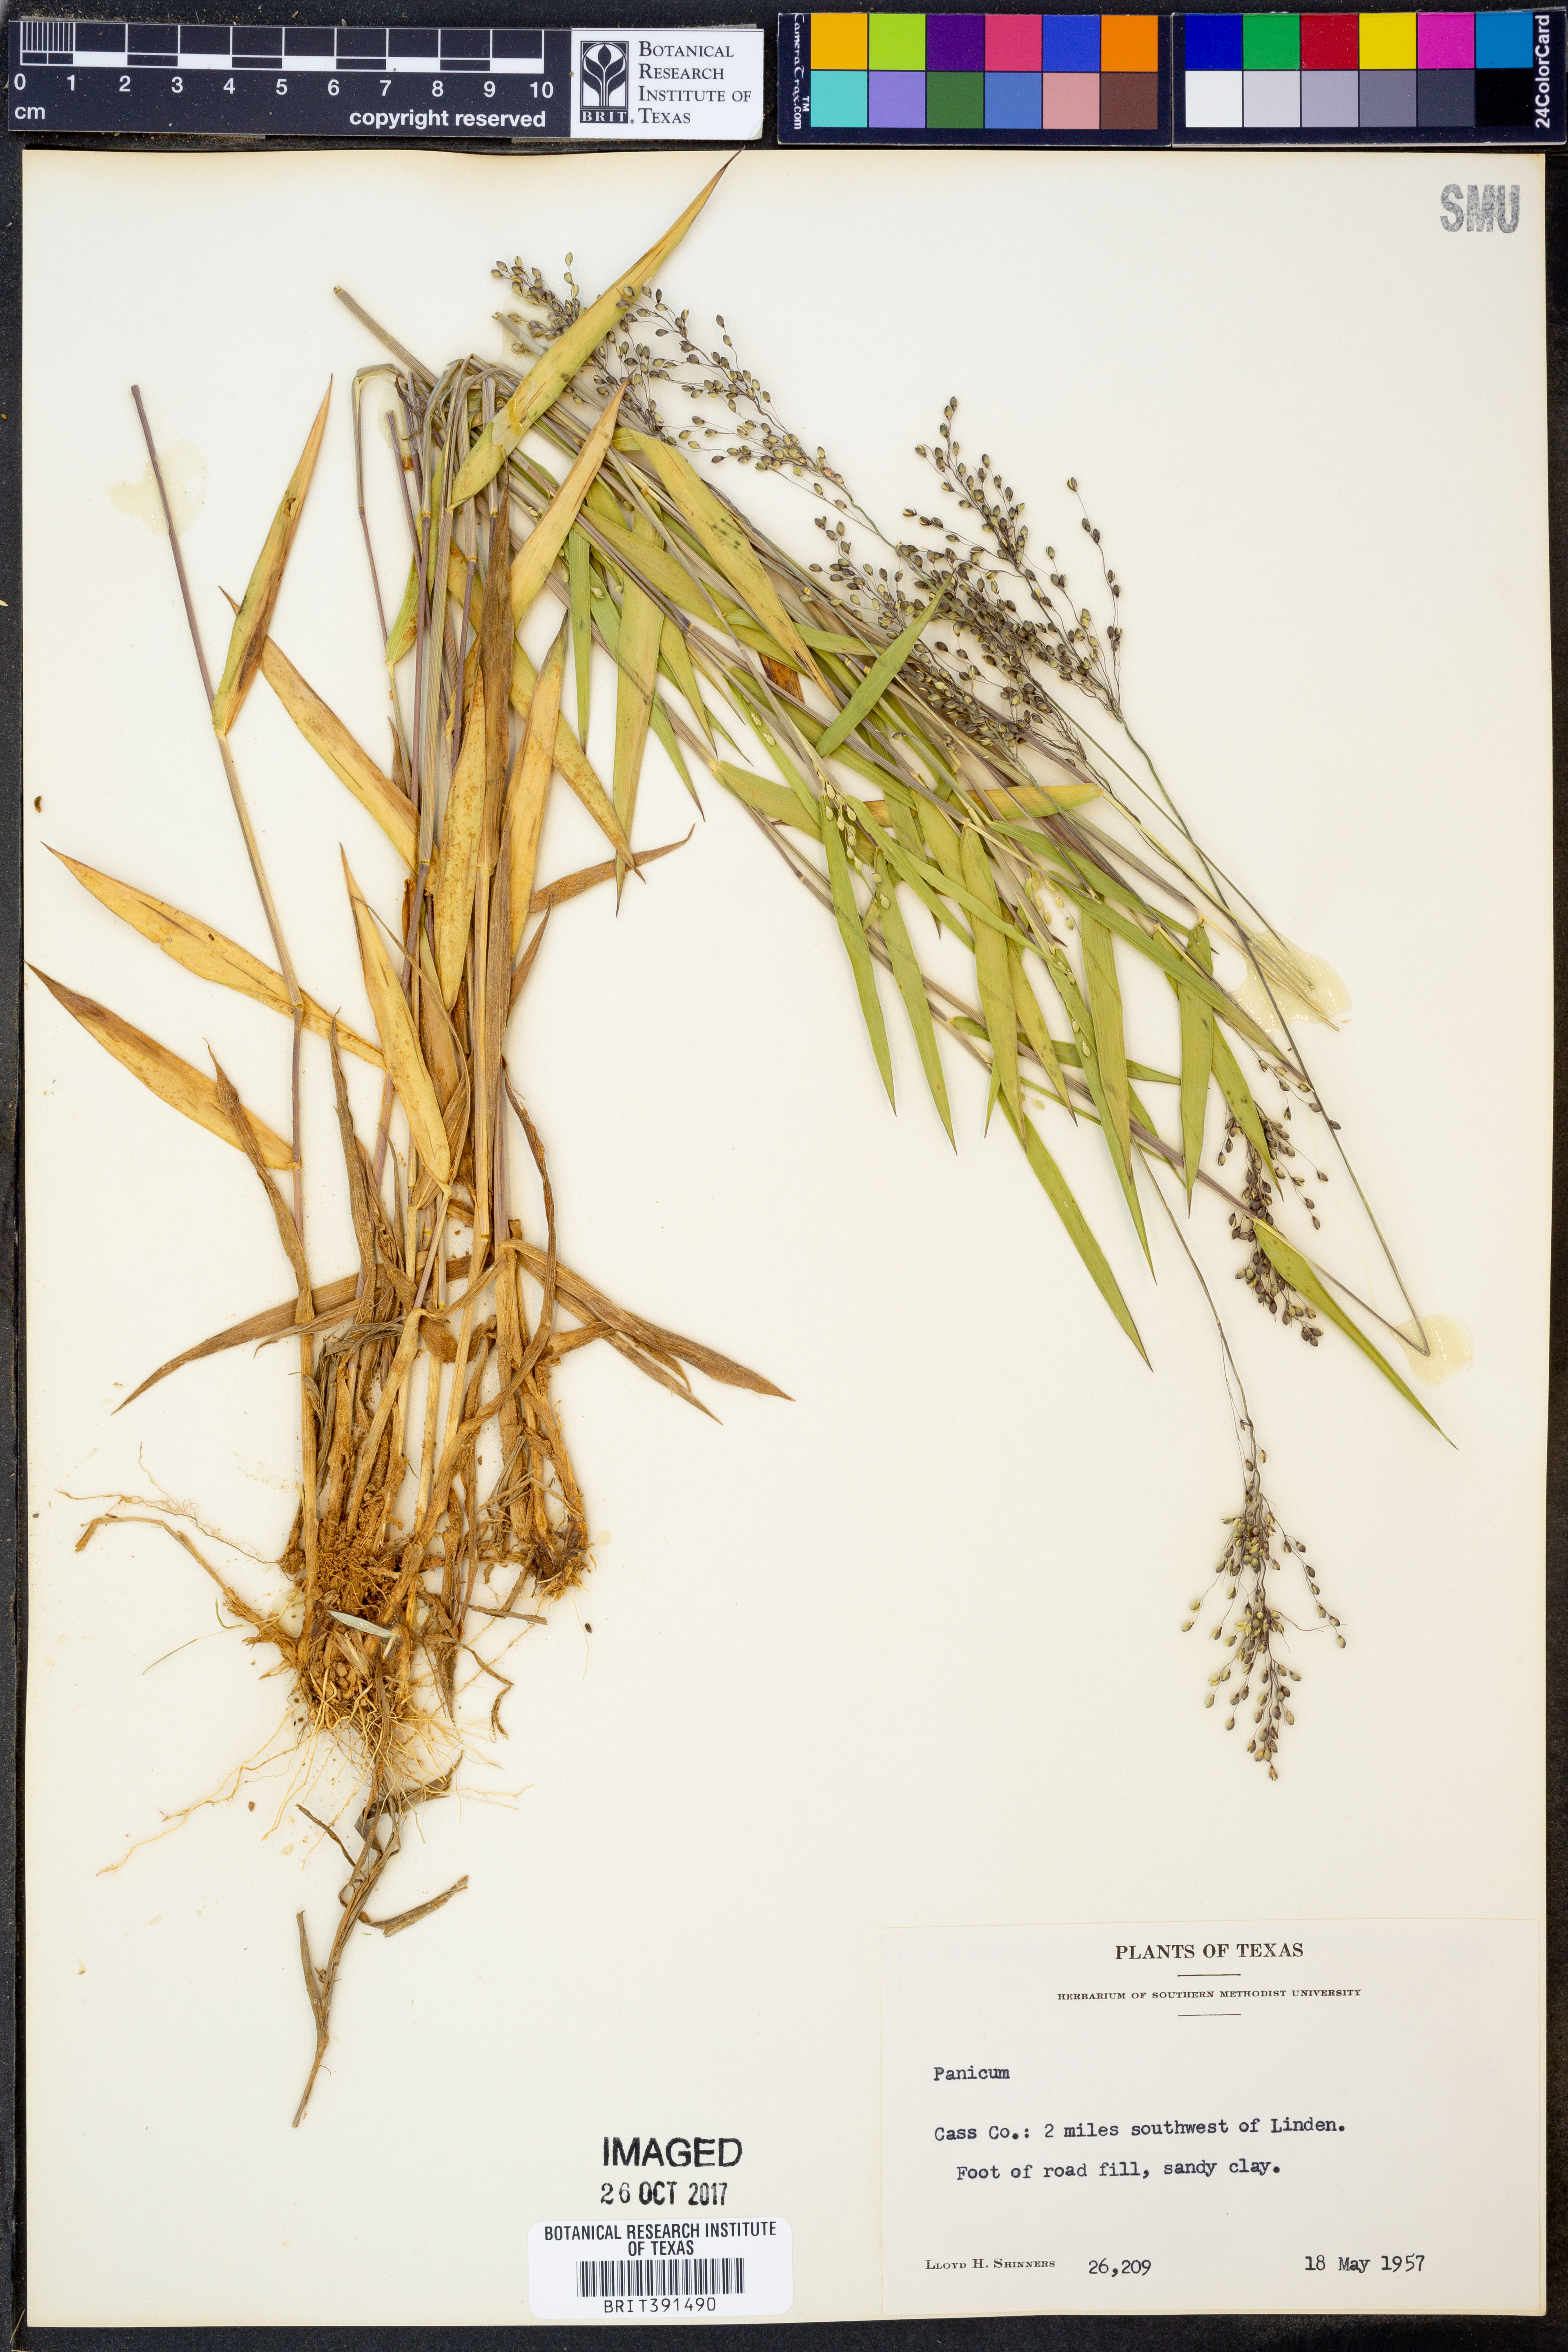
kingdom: Plantae
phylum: Tracheophyta
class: Liliopsida
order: Poales
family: Poaceae
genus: Panicum
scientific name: Panicum
